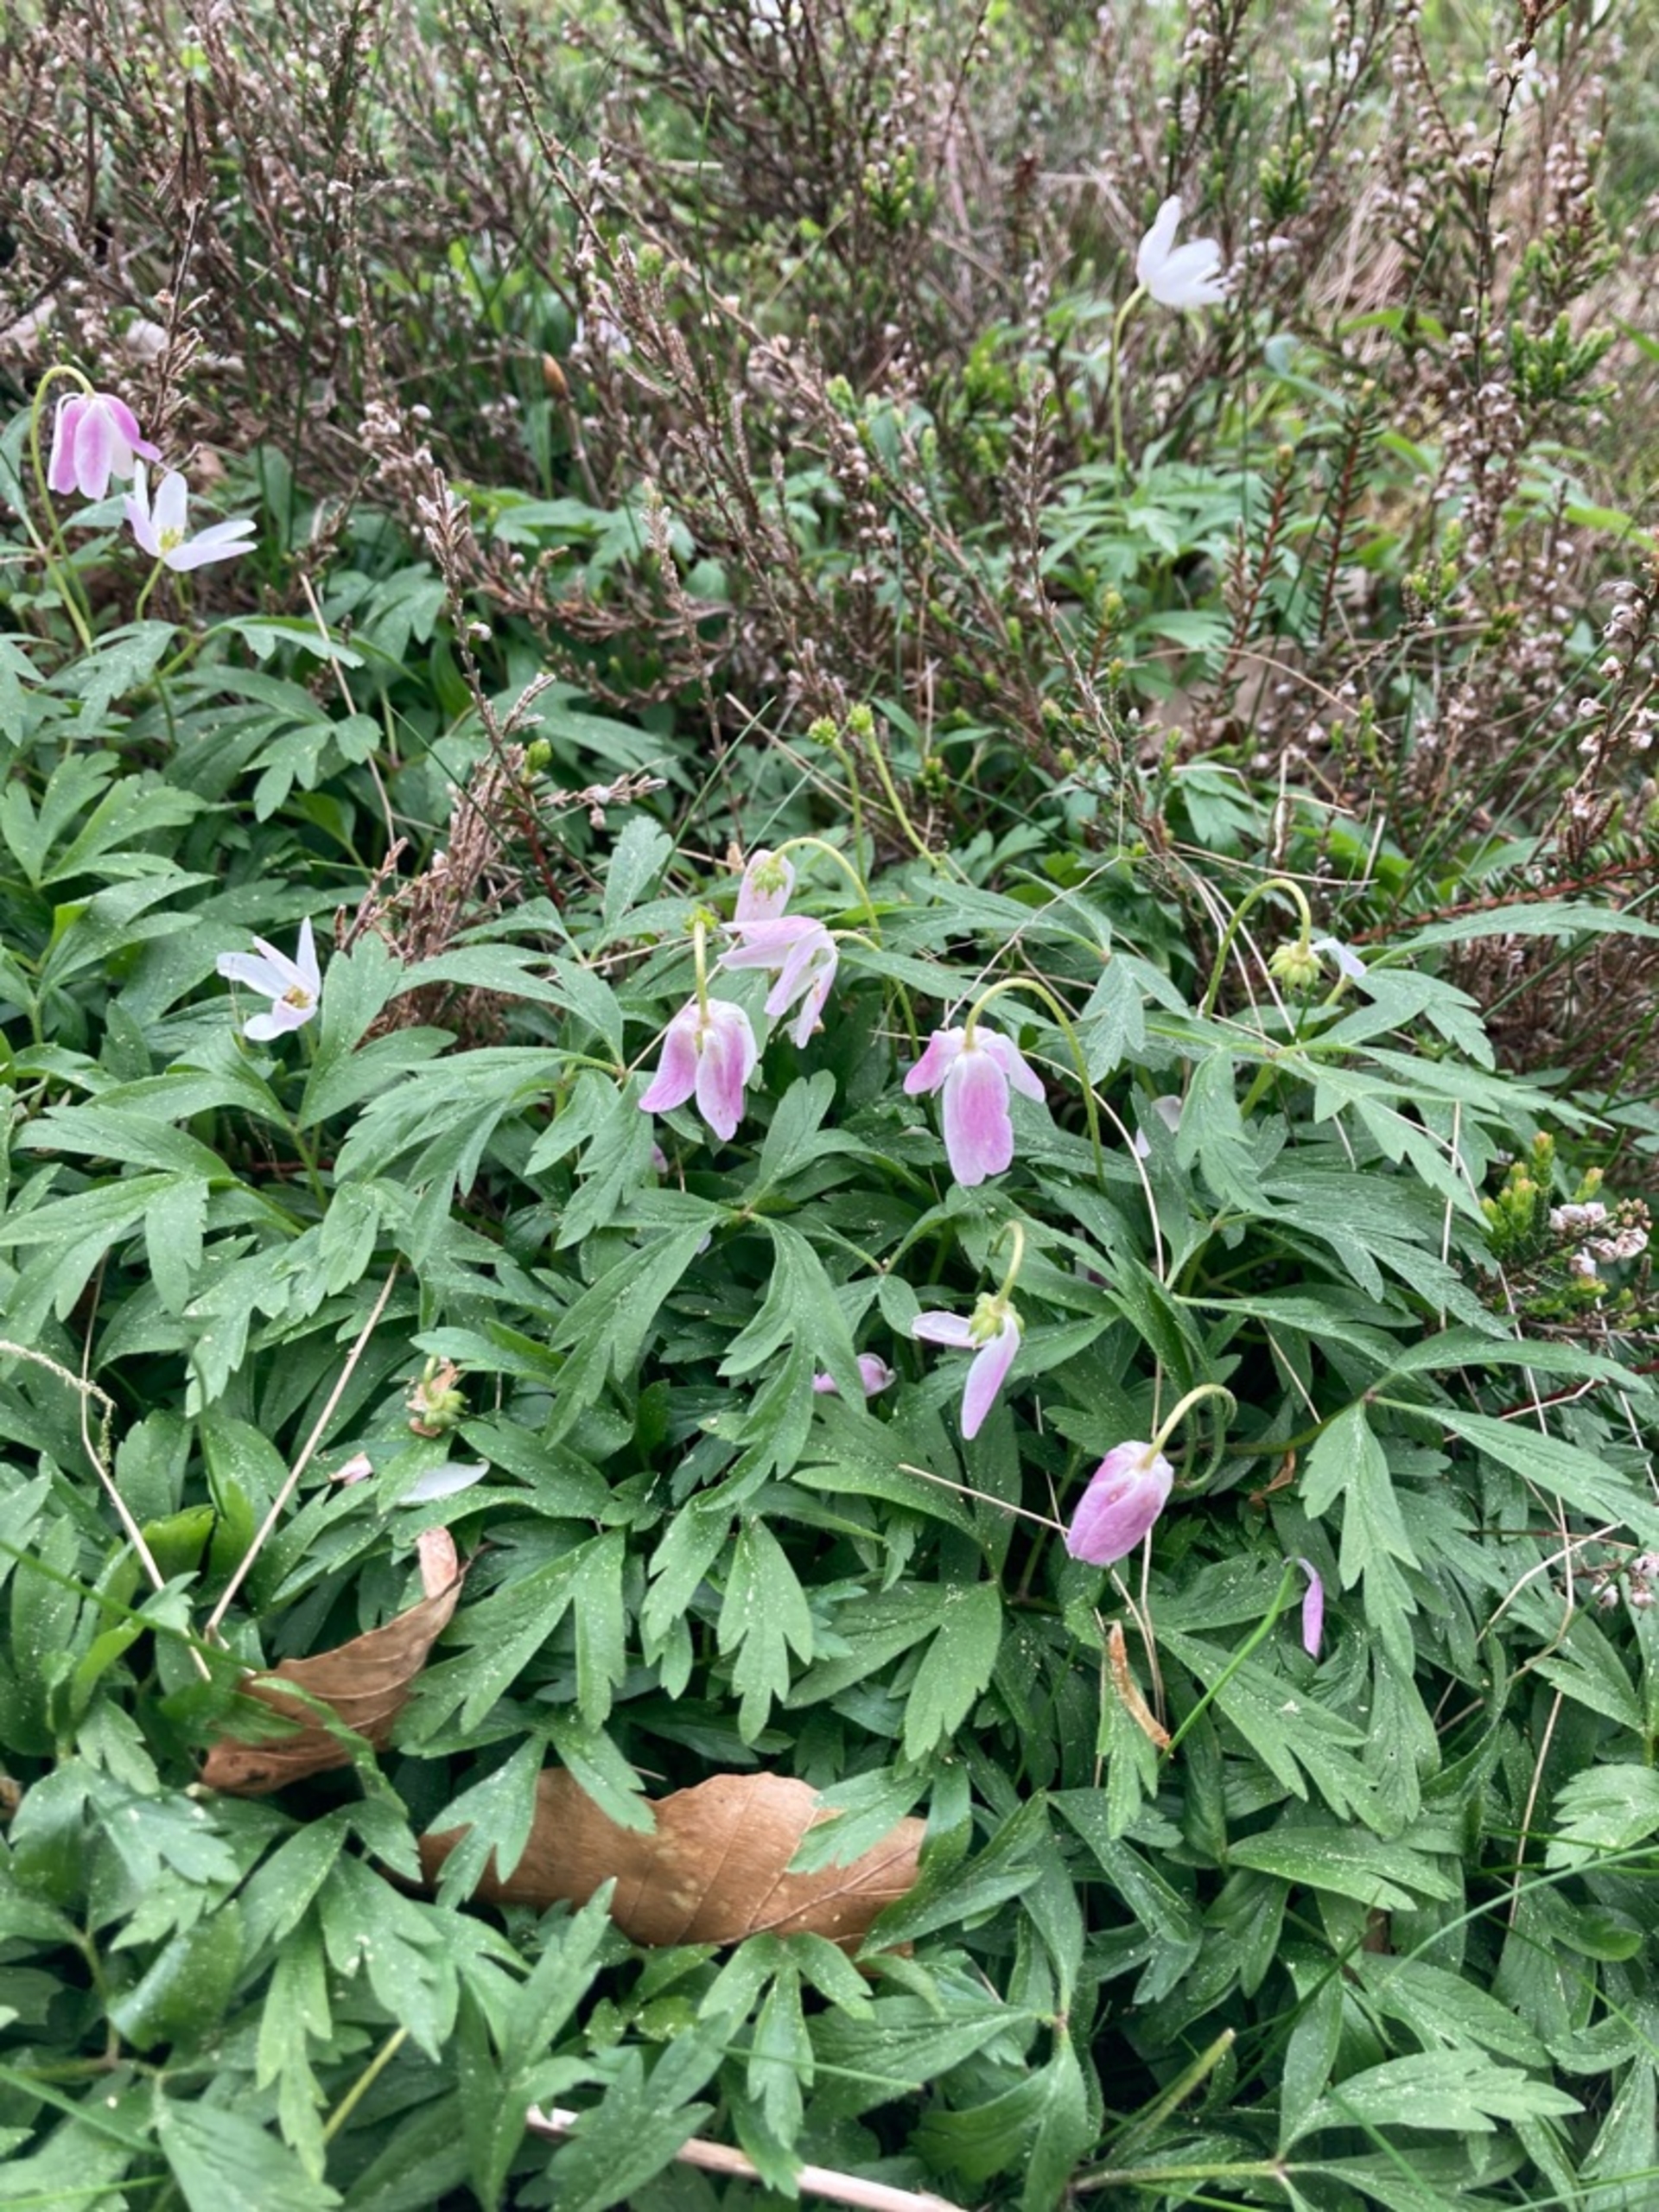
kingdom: Plantae
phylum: Tracheophyta
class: Magnoliopsida
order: Ranunculales
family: Ranunculaceae
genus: Anemone
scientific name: Anemone nemorosa
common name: Hvid anemone
